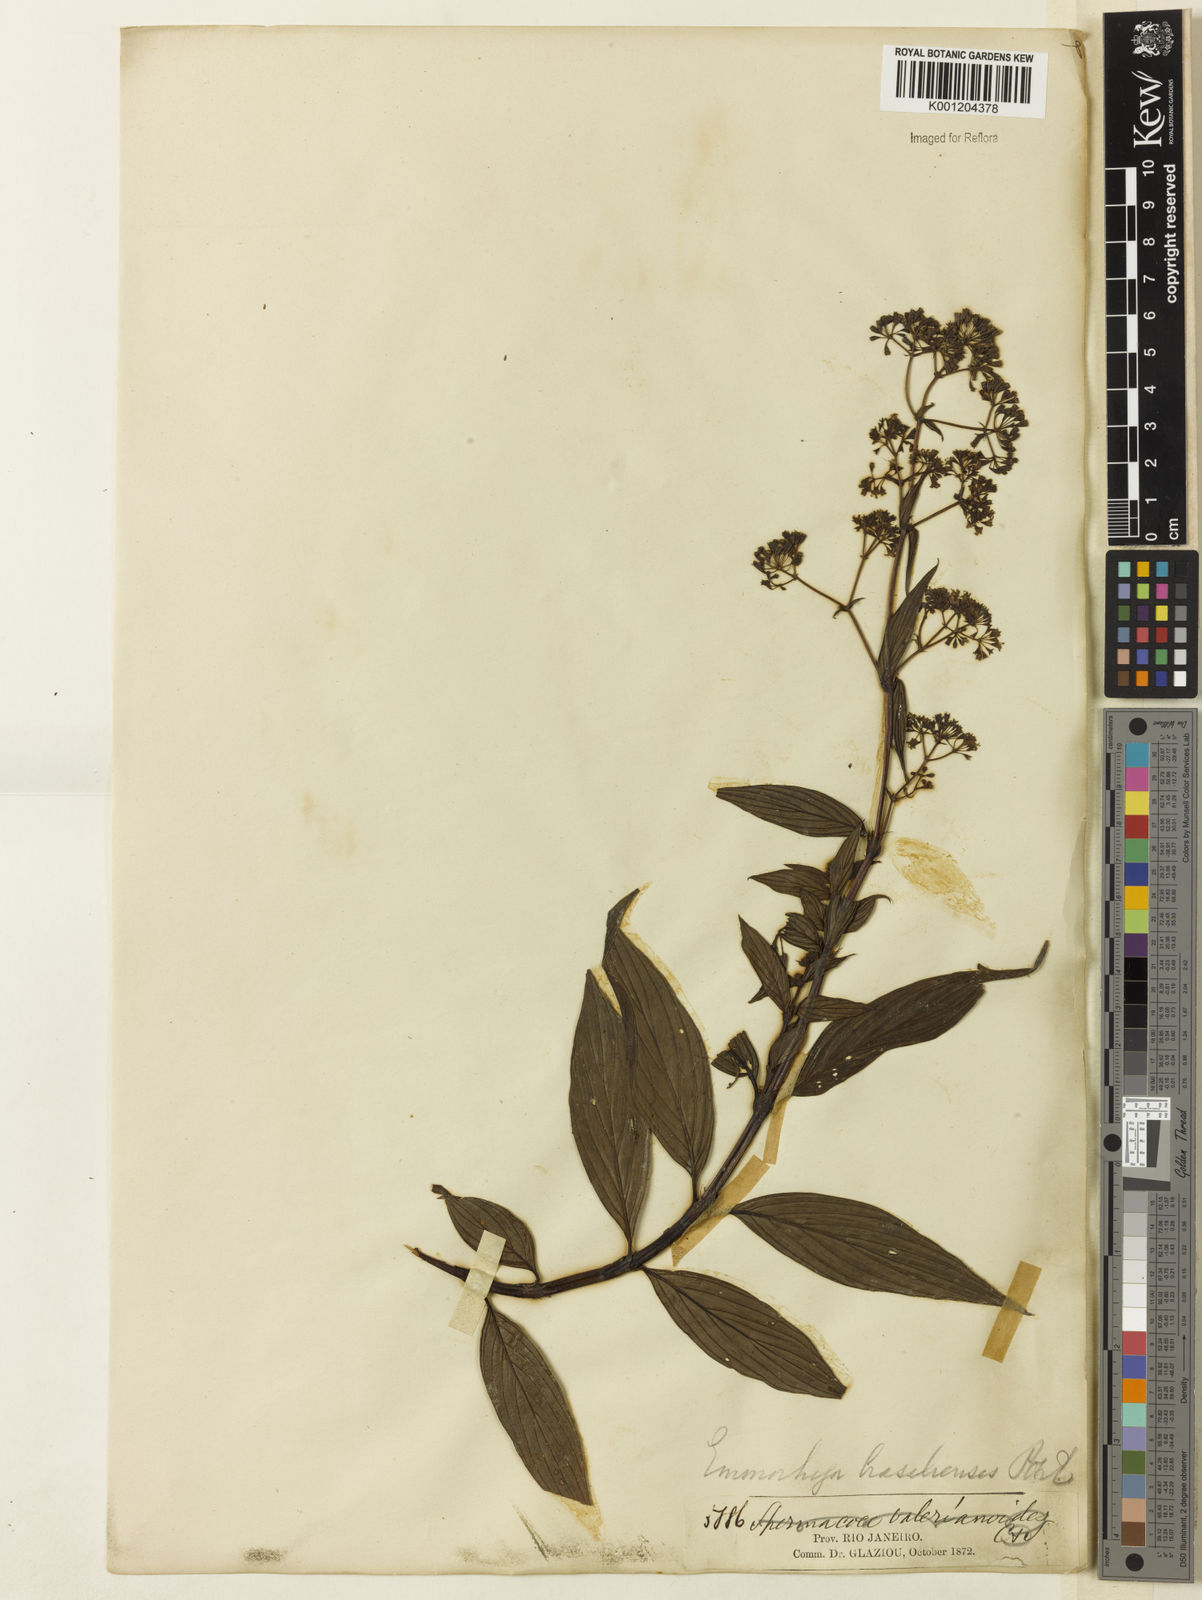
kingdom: Plantae
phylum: Tracheophyta
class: Magnoliopsida
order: Gentianales
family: Rubiaceae
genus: Emmeorhiza
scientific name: Emmeorhiza umbellata
